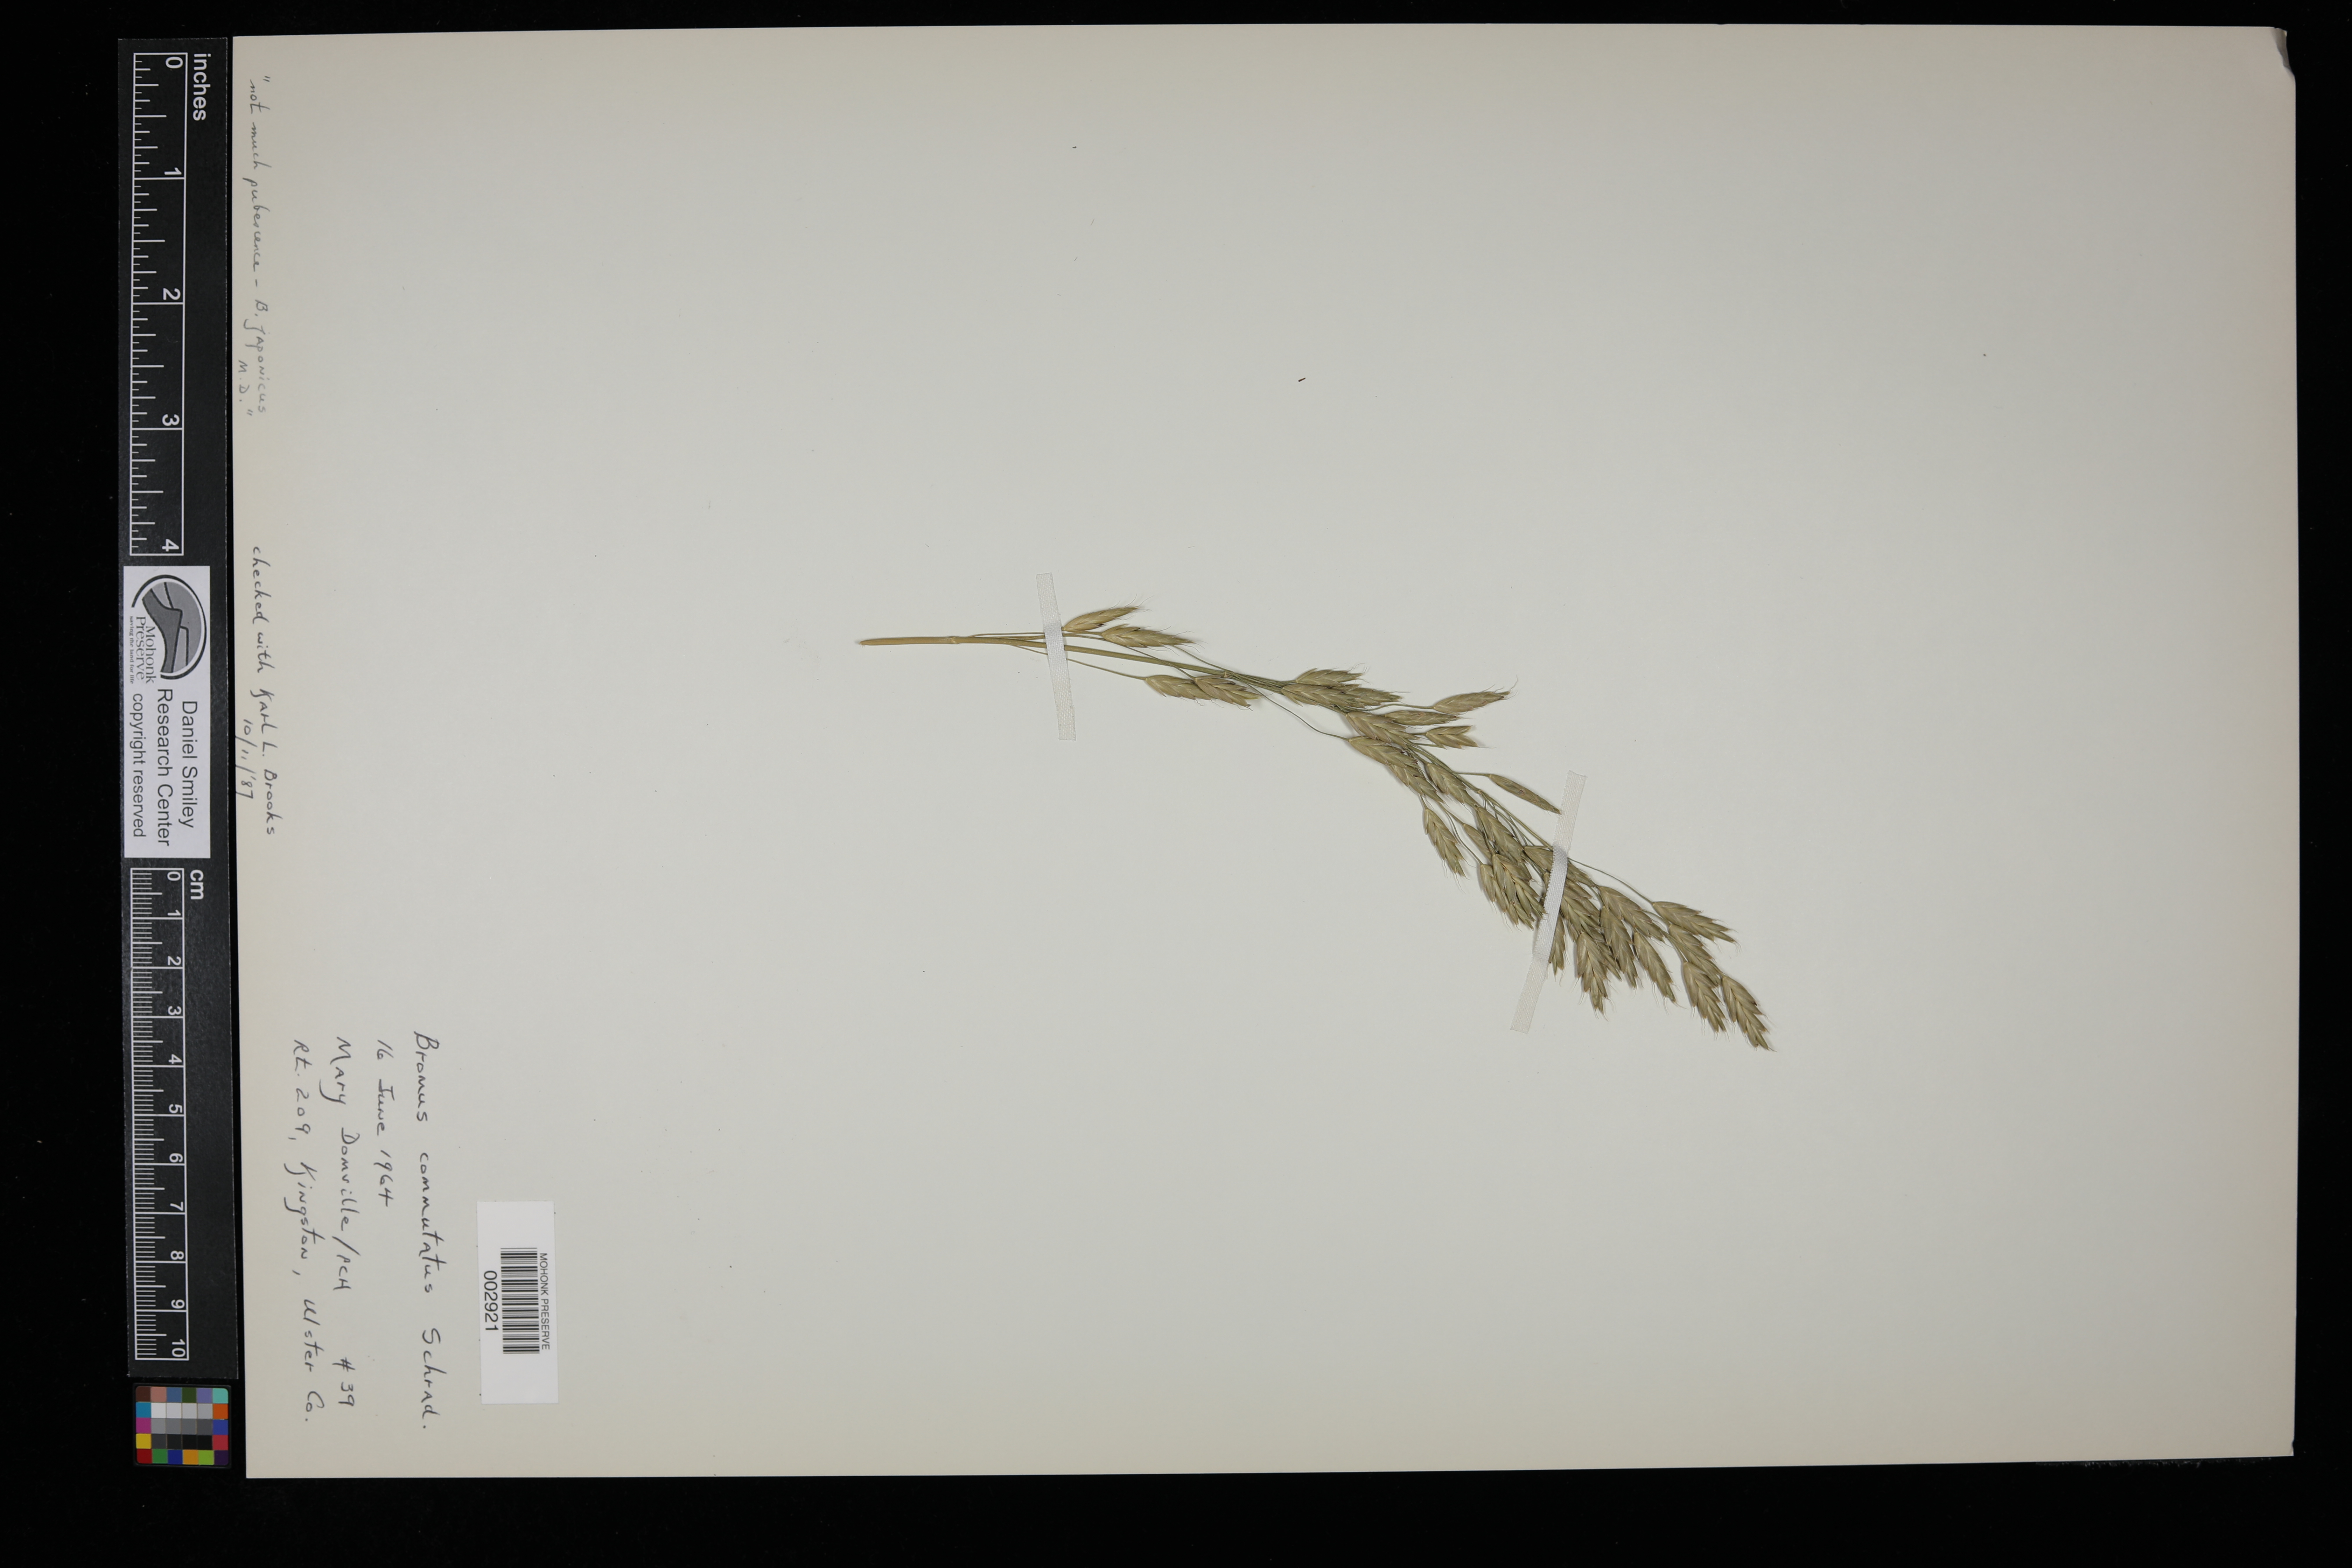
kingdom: Plantae
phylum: Tracheophyta
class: Liliopsida
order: Poales
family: Poaceae
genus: Bromus
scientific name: Bromus commutatus
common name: Meadow brome
